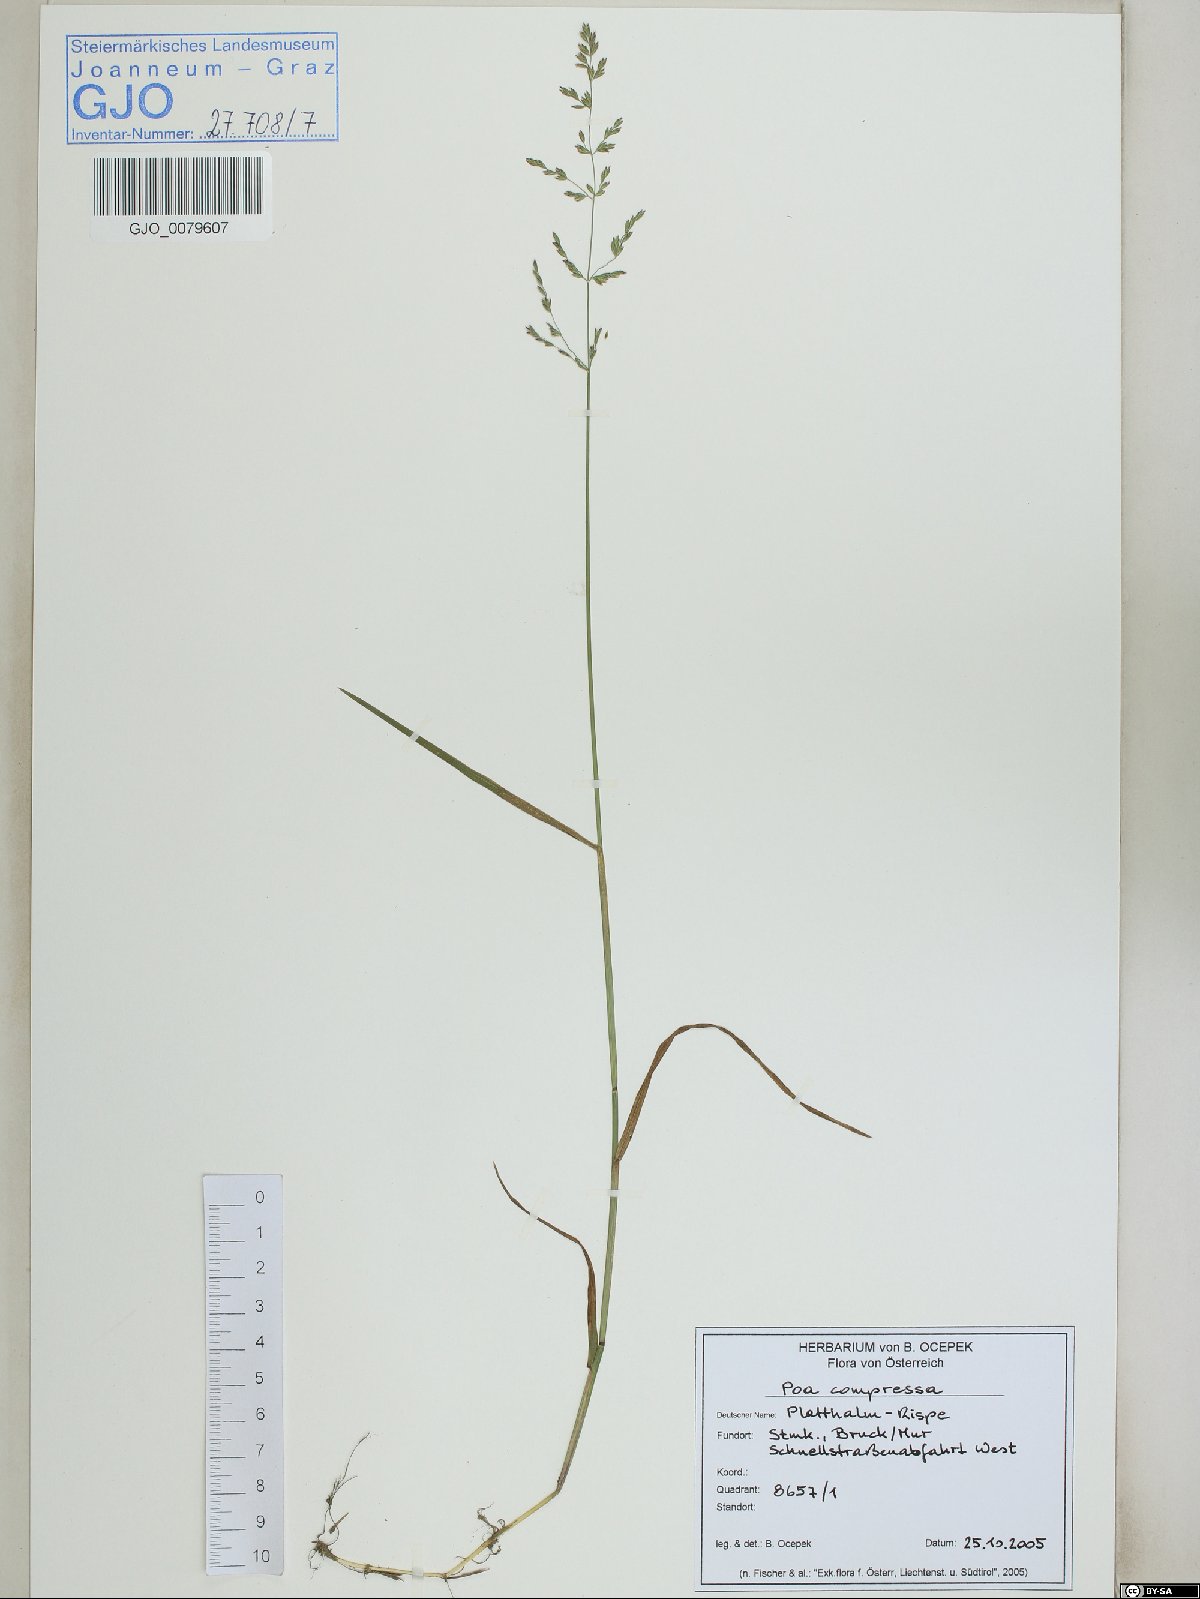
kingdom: Plantae
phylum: Tracheophyta
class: Liliopsida
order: Poales
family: Poaceae
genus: Poa
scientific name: Poa compressa
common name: Canada bluegrass
